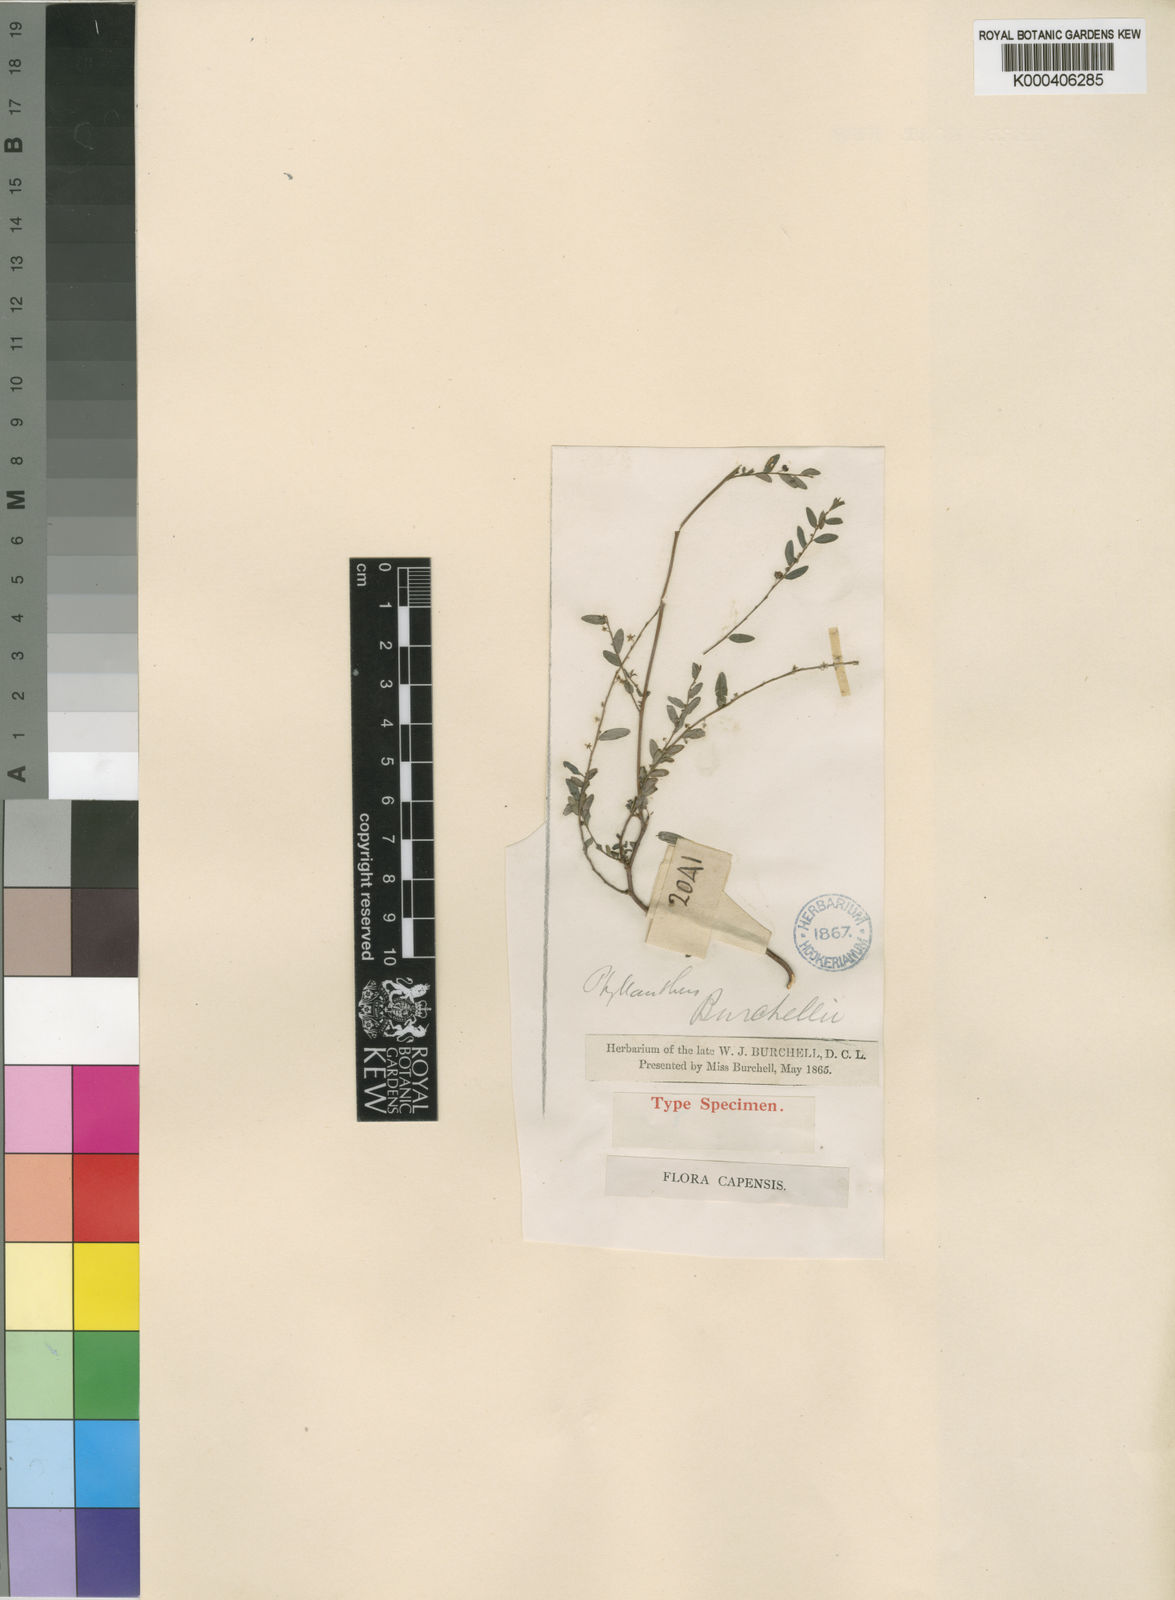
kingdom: Plantae
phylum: Tracheophyta
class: Magnoliopsida
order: Malpighiales
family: Phyllanthaceae
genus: Phyllanthus
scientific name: Phyllanthus
